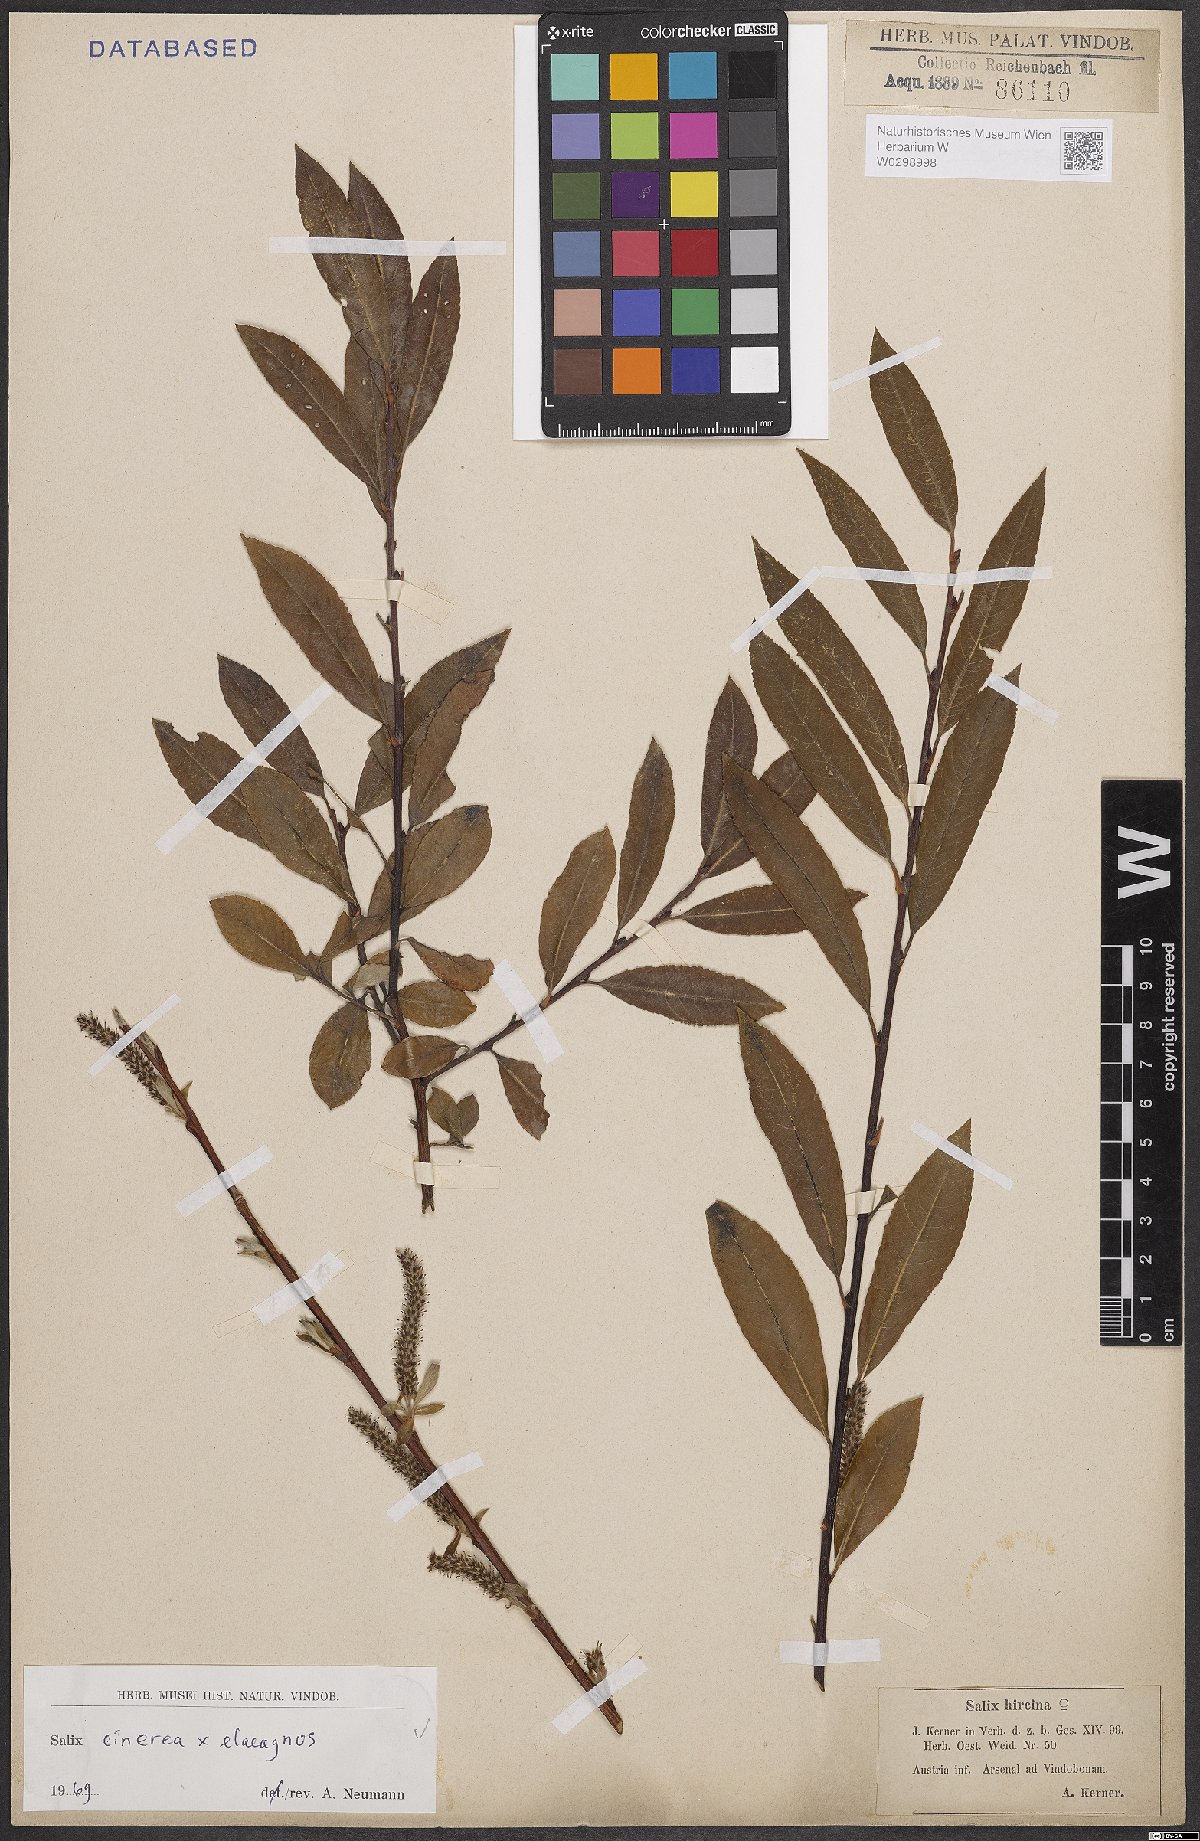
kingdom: Plantae
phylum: Tracheophyta
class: Magnoliopsida
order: Malpighiales
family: Salicaceae
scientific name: Salicaceae
